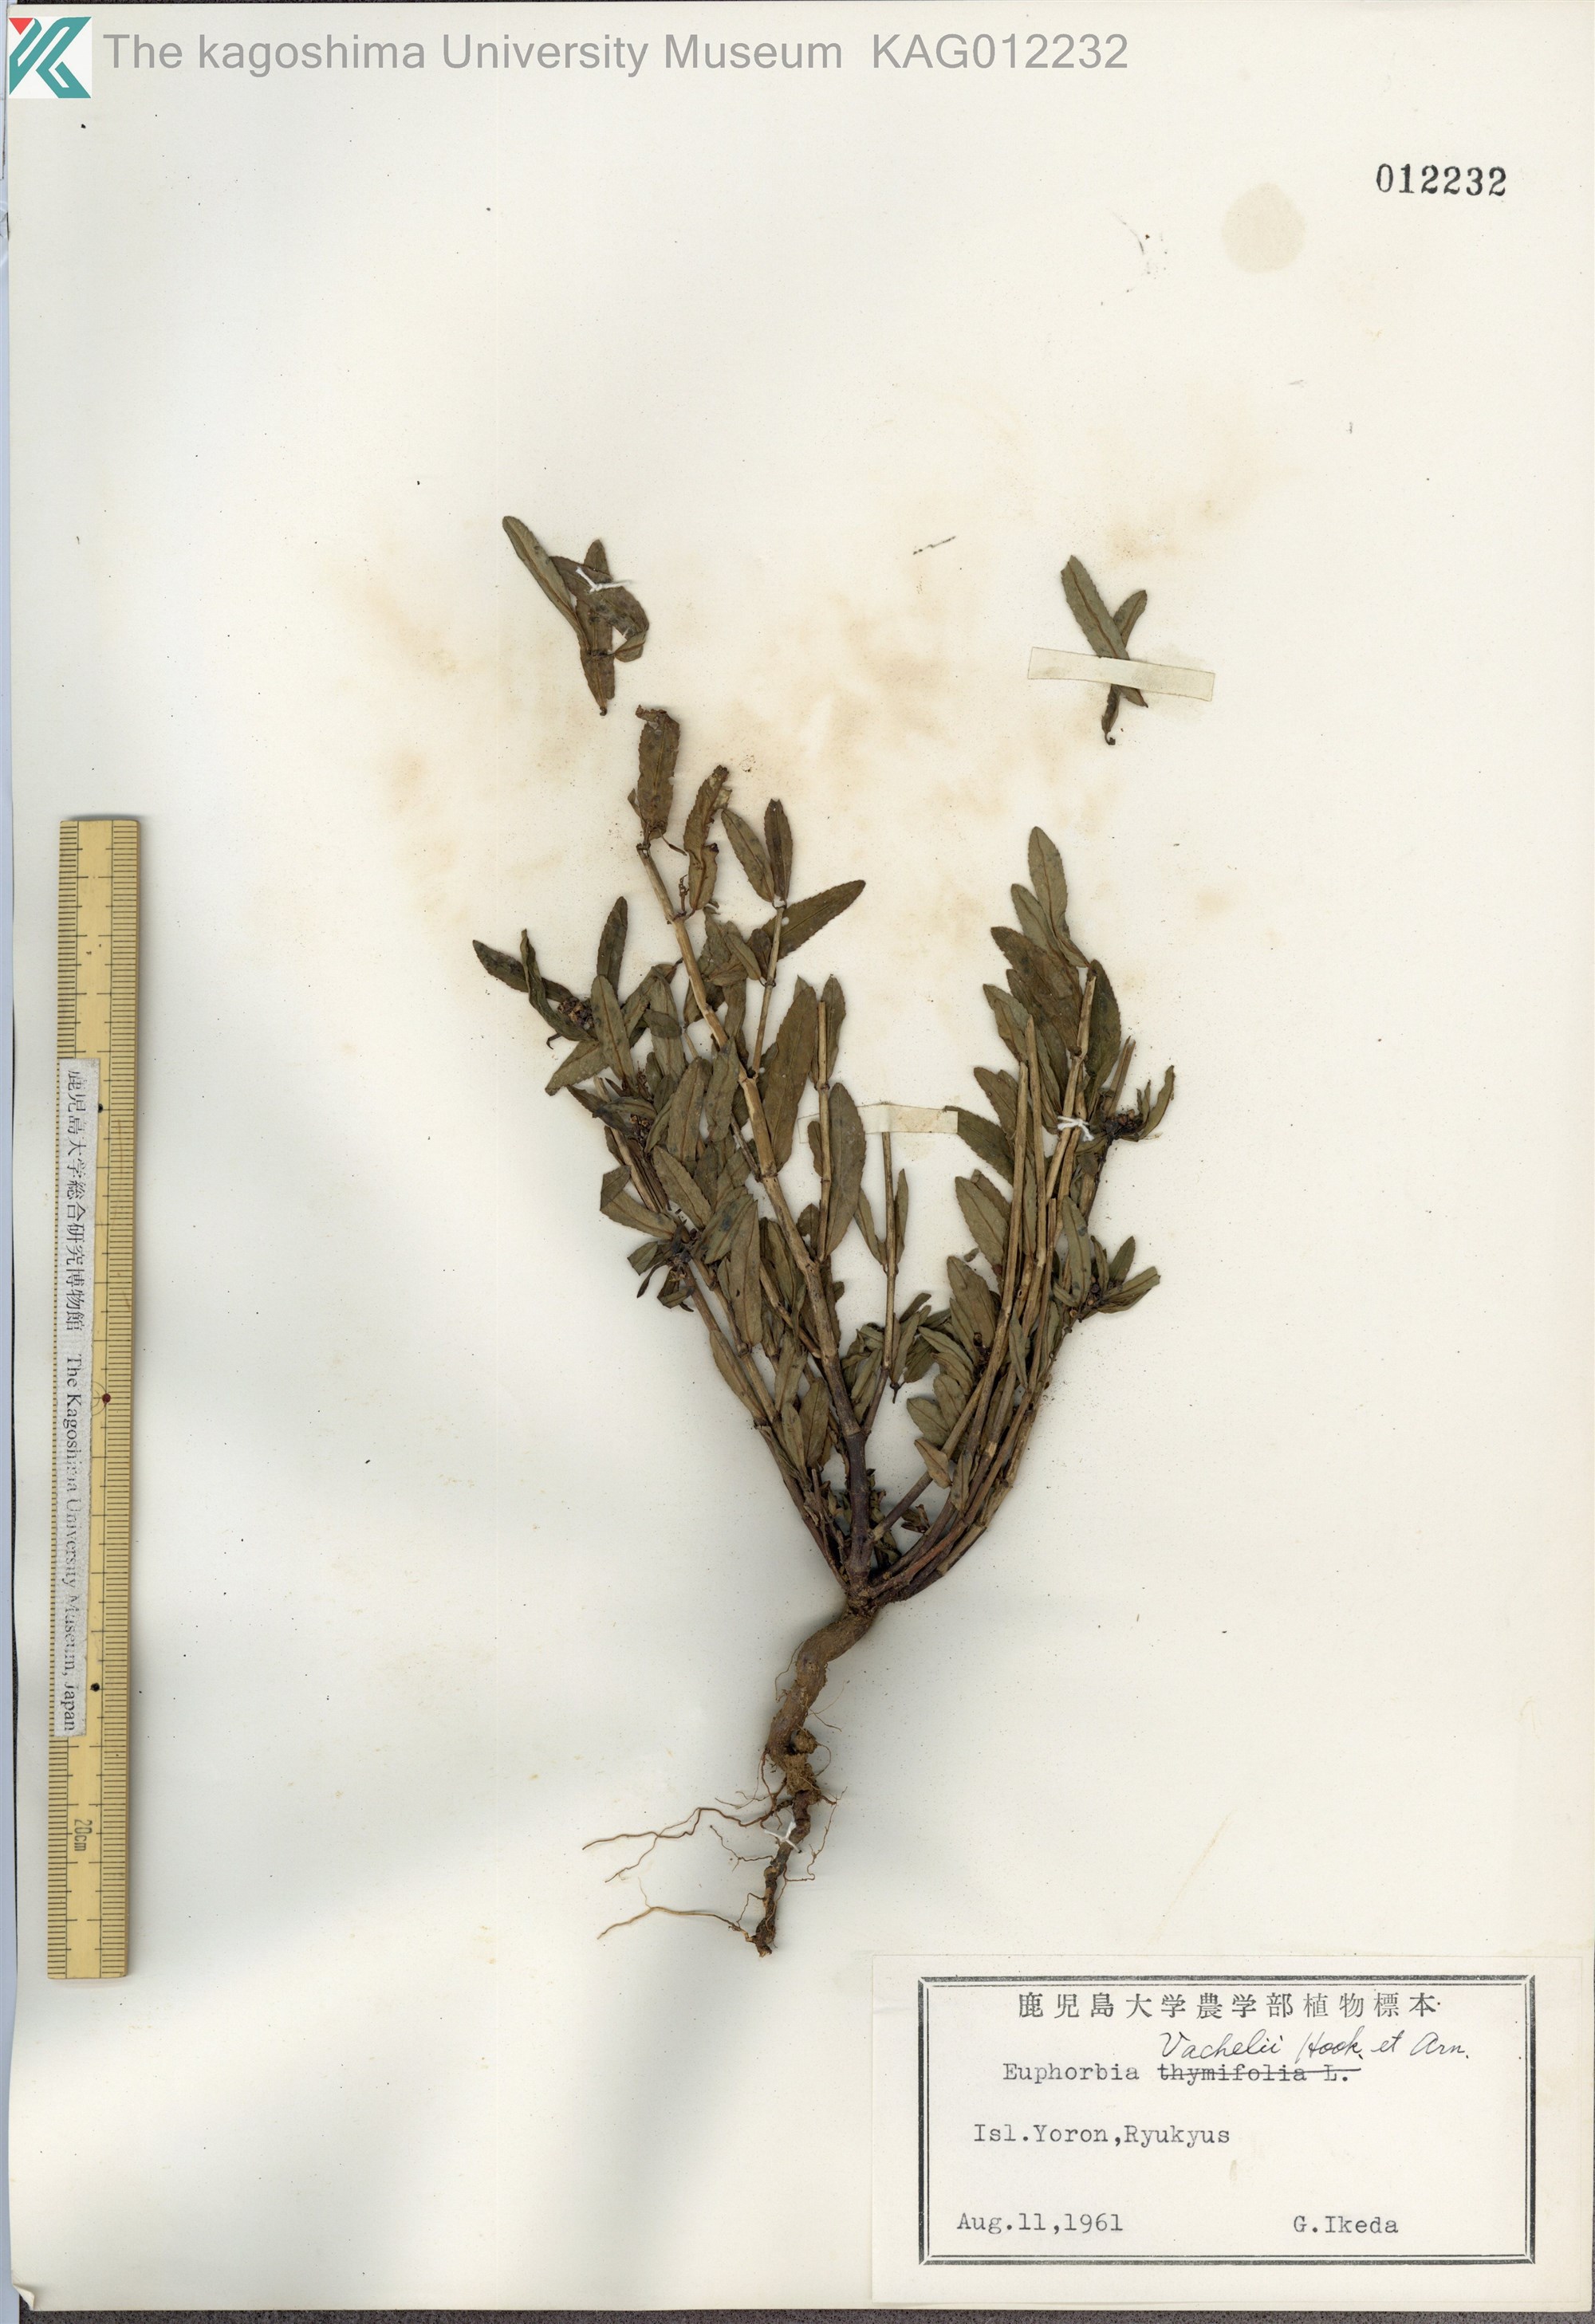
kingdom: Plantae
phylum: Tracheophyta
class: Magnoliopsida
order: Malpighiales
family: Euphorbiaceae
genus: Euphorbia
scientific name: Euphorbia bifida
